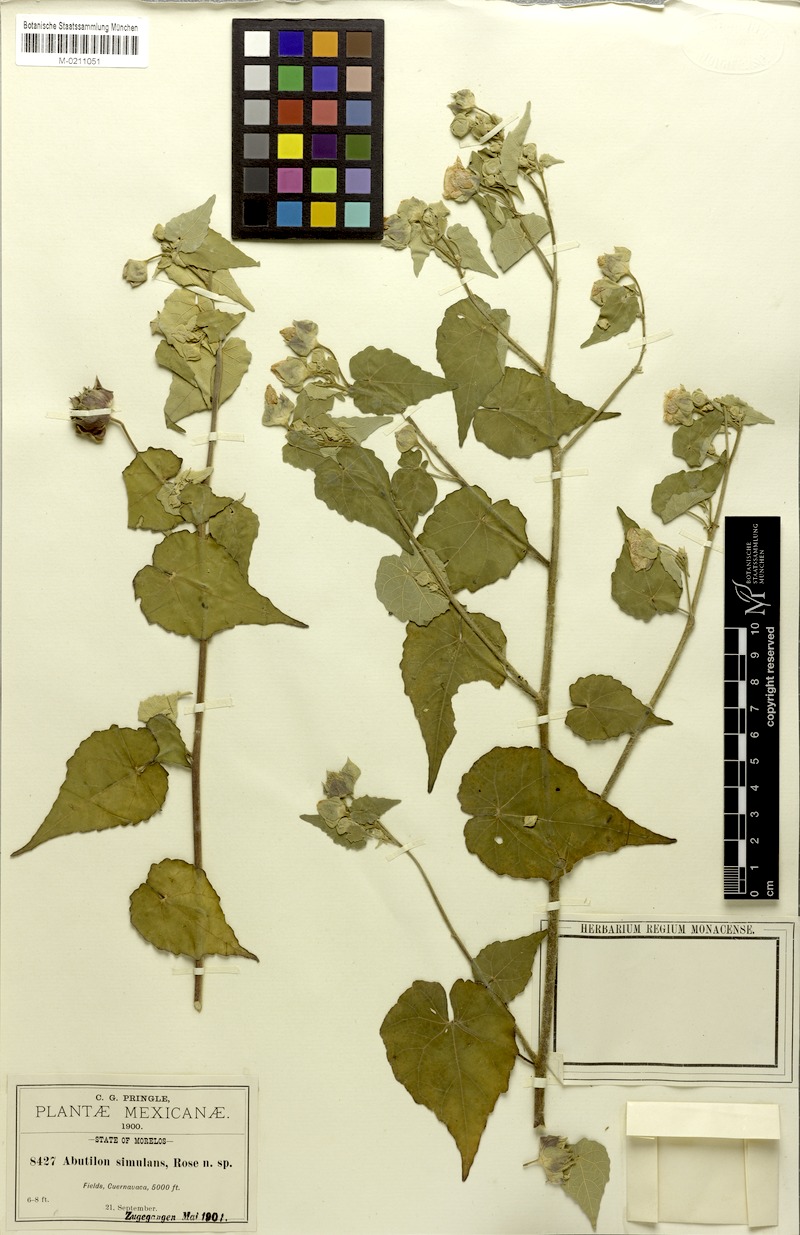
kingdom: Plantae
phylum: Tracheophyta
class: Magnoliopsida
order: Malvales
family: Malvaceae
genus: Abutilon
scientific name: Abutilon simulans
